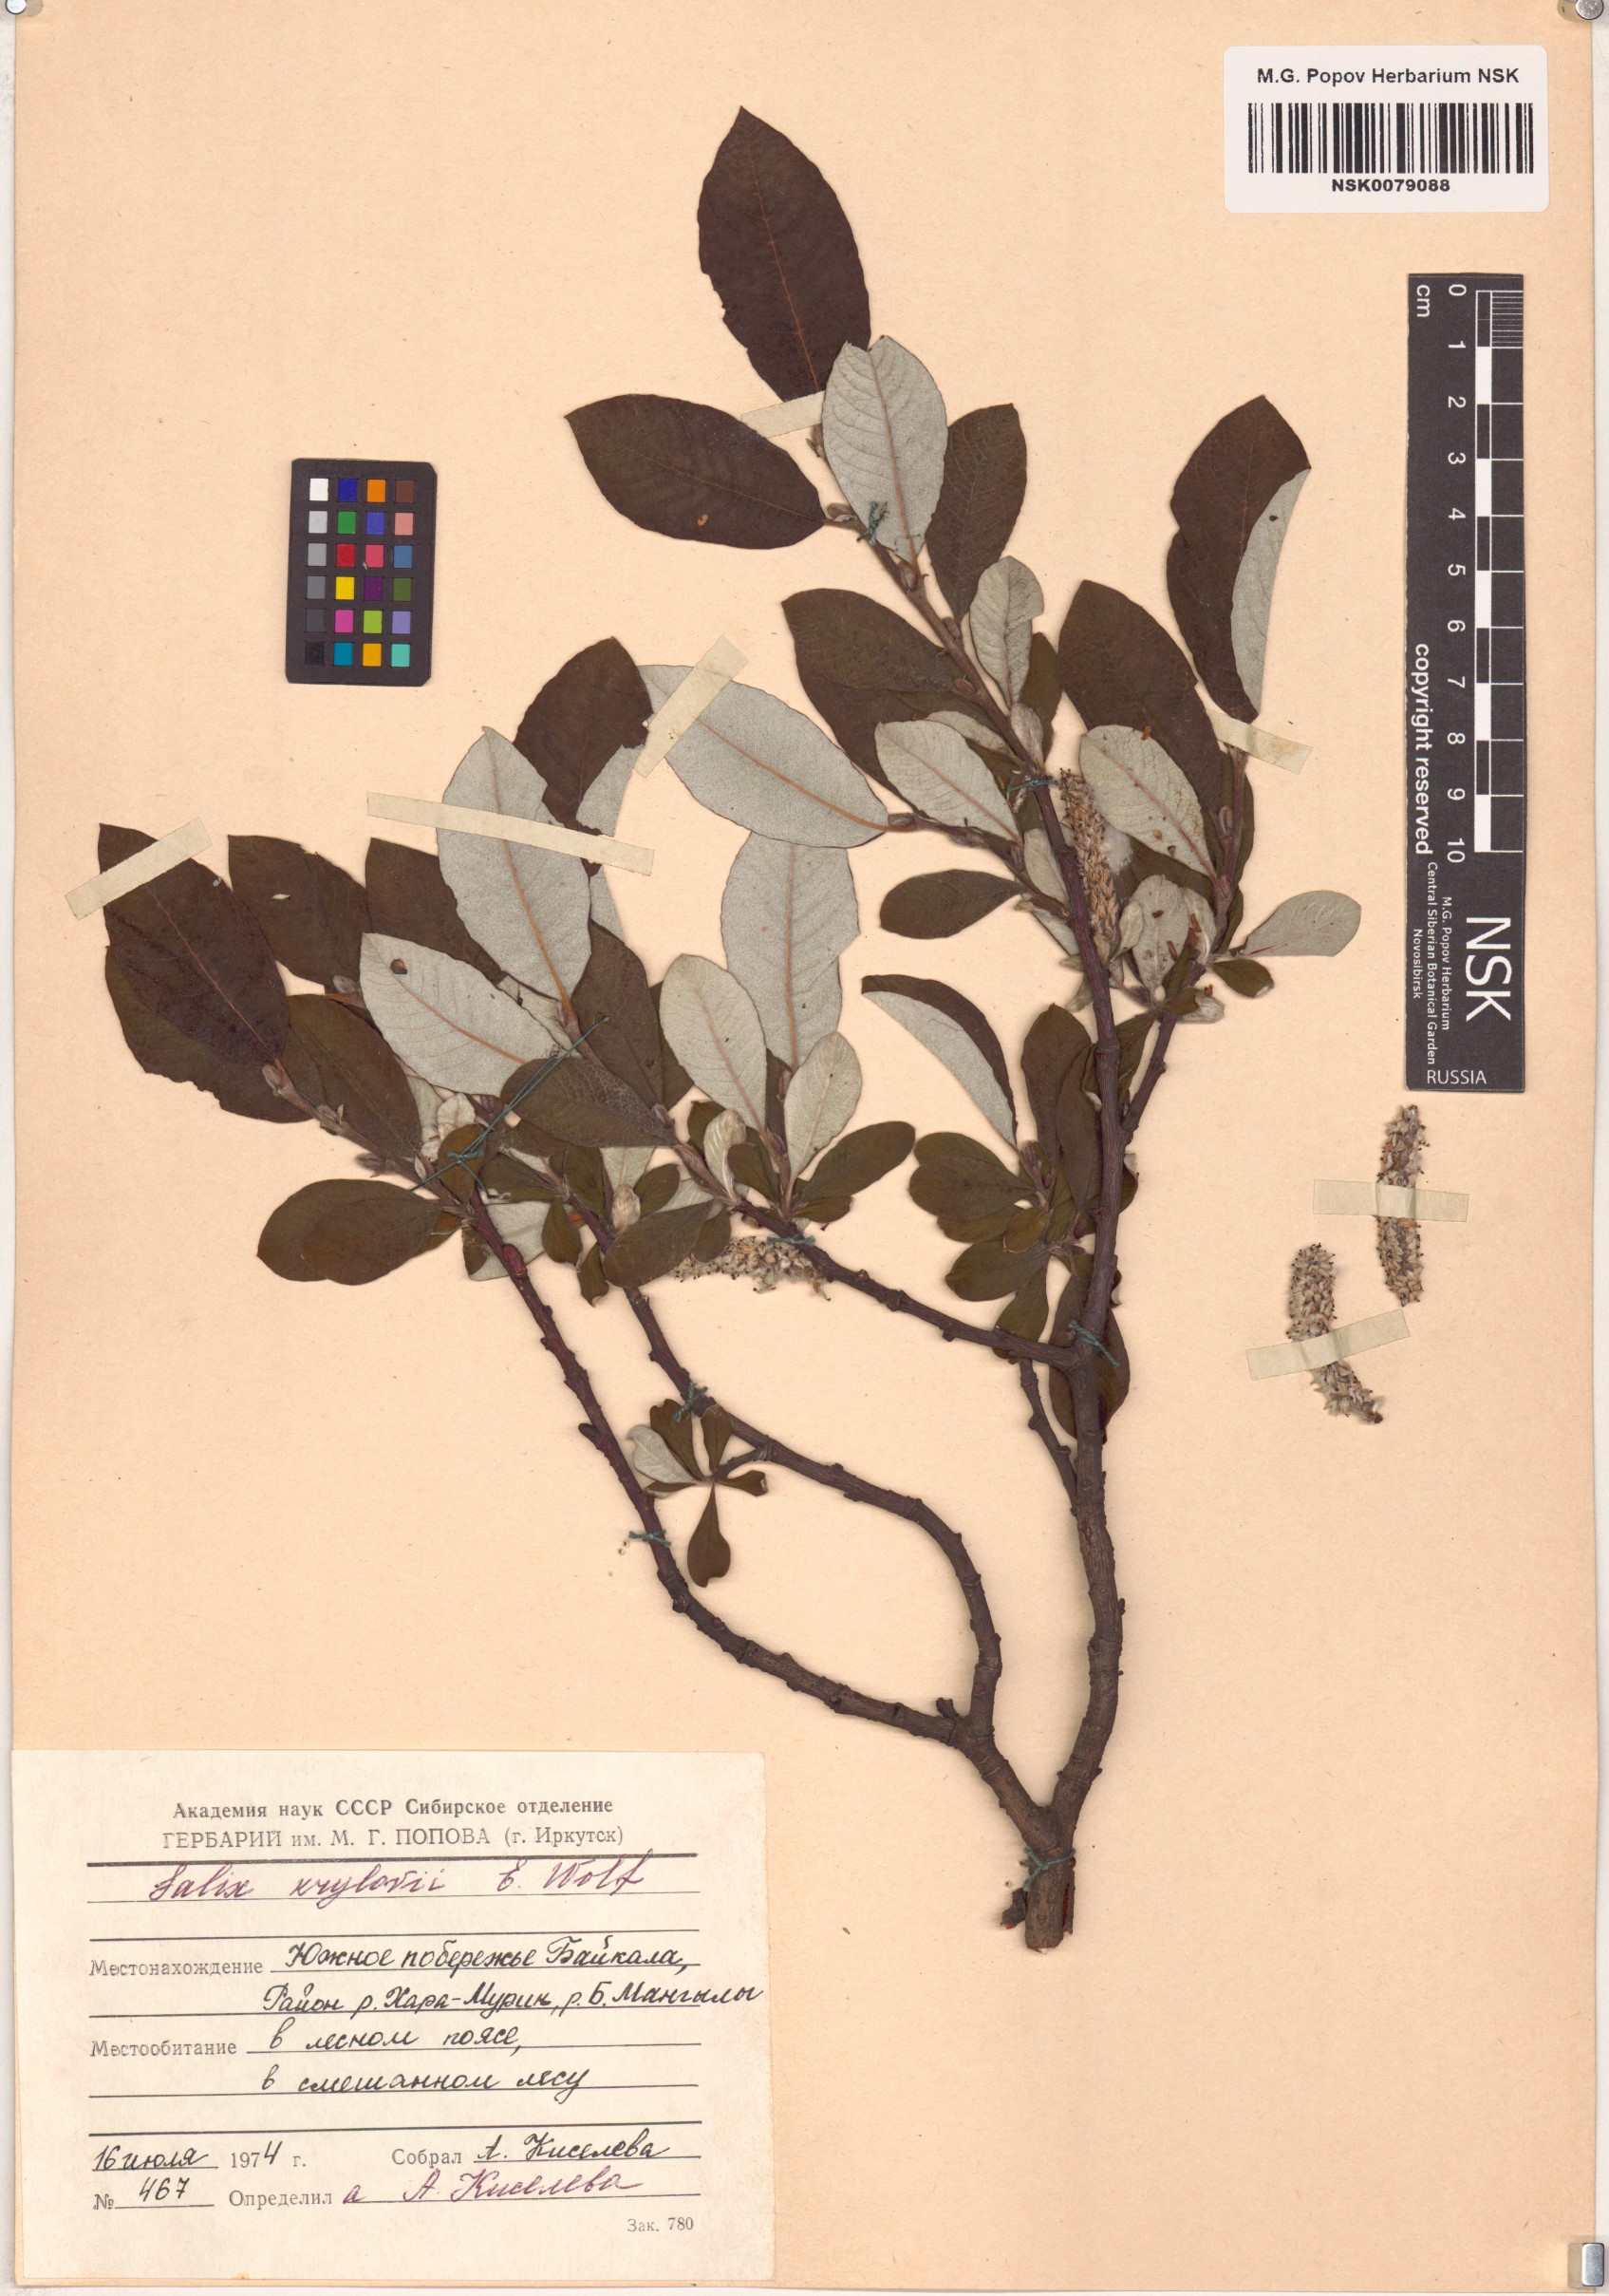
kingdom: Plantae
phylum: Tracheophyta
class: Magnoliopsida
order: Malpighiales
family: Salicaceae
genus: Salix
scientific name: Salix krylovii
